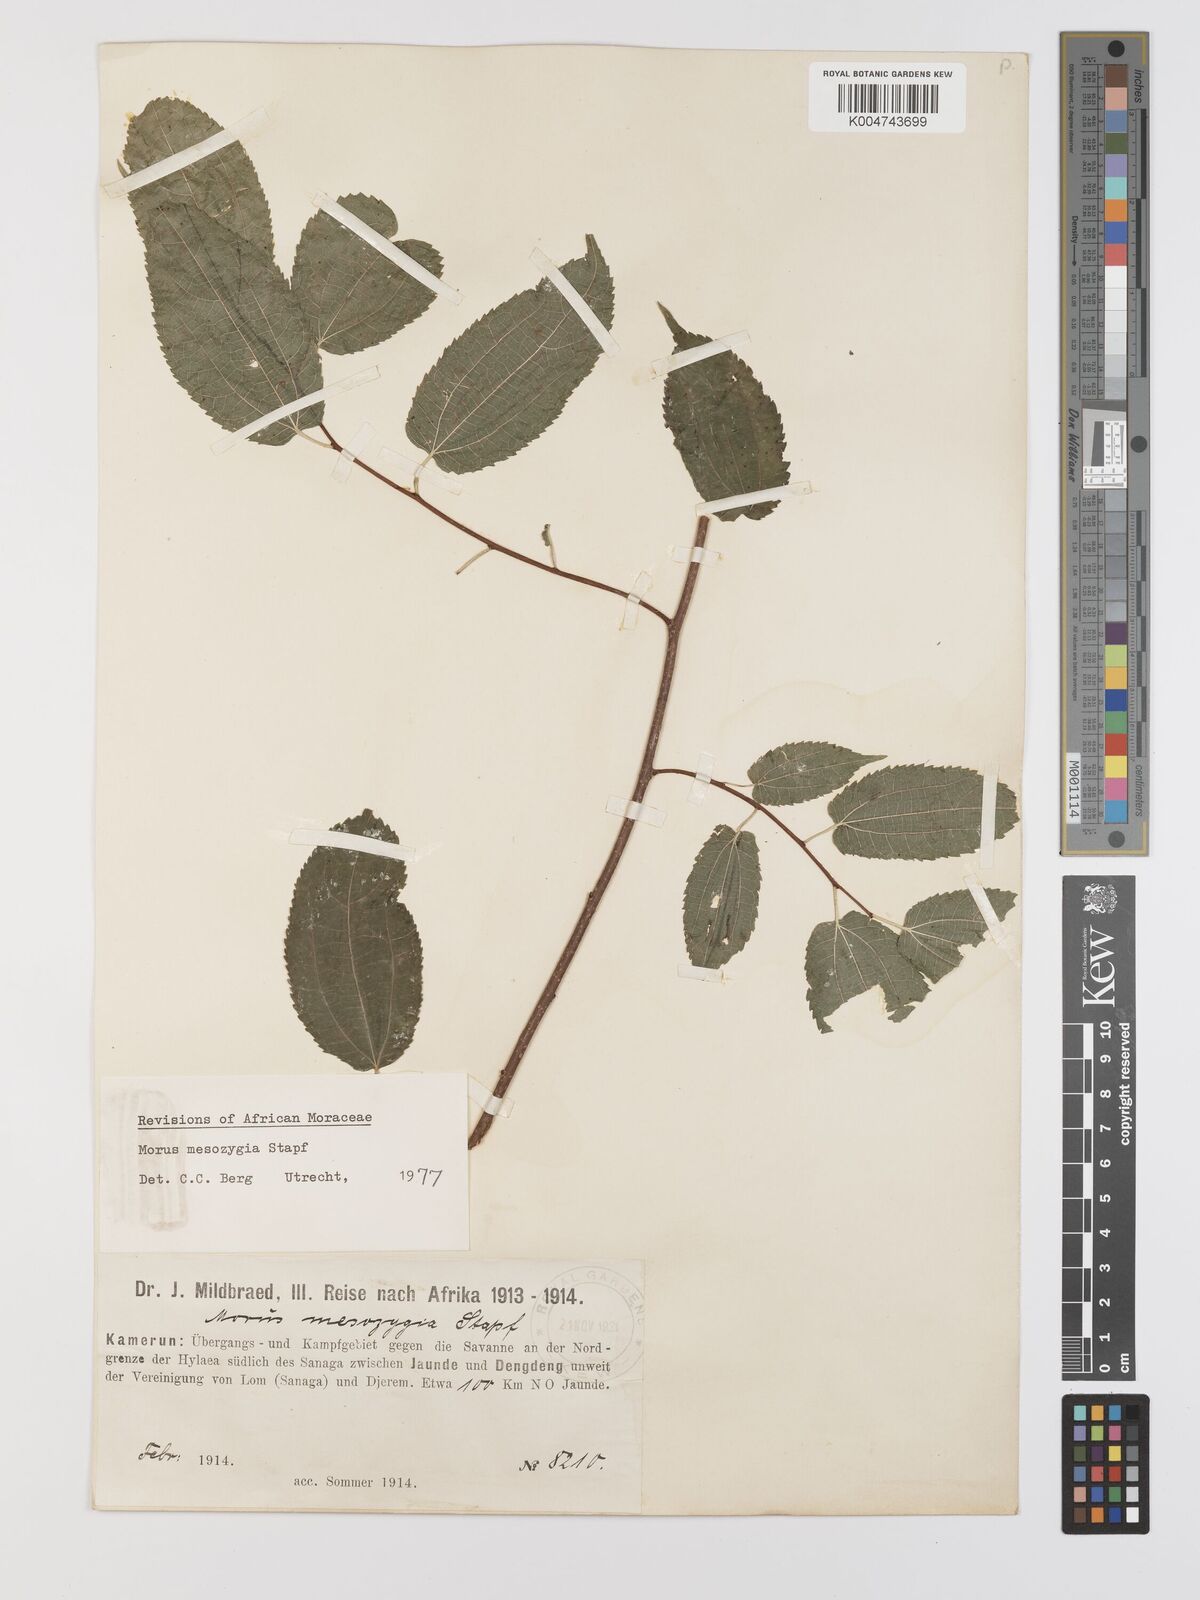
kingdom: Plantae
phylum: Tracheophyta
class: Magnoliopsida
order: Rosales
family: Moraceae
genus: Afromorus
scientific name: Afromorus mesozygia
